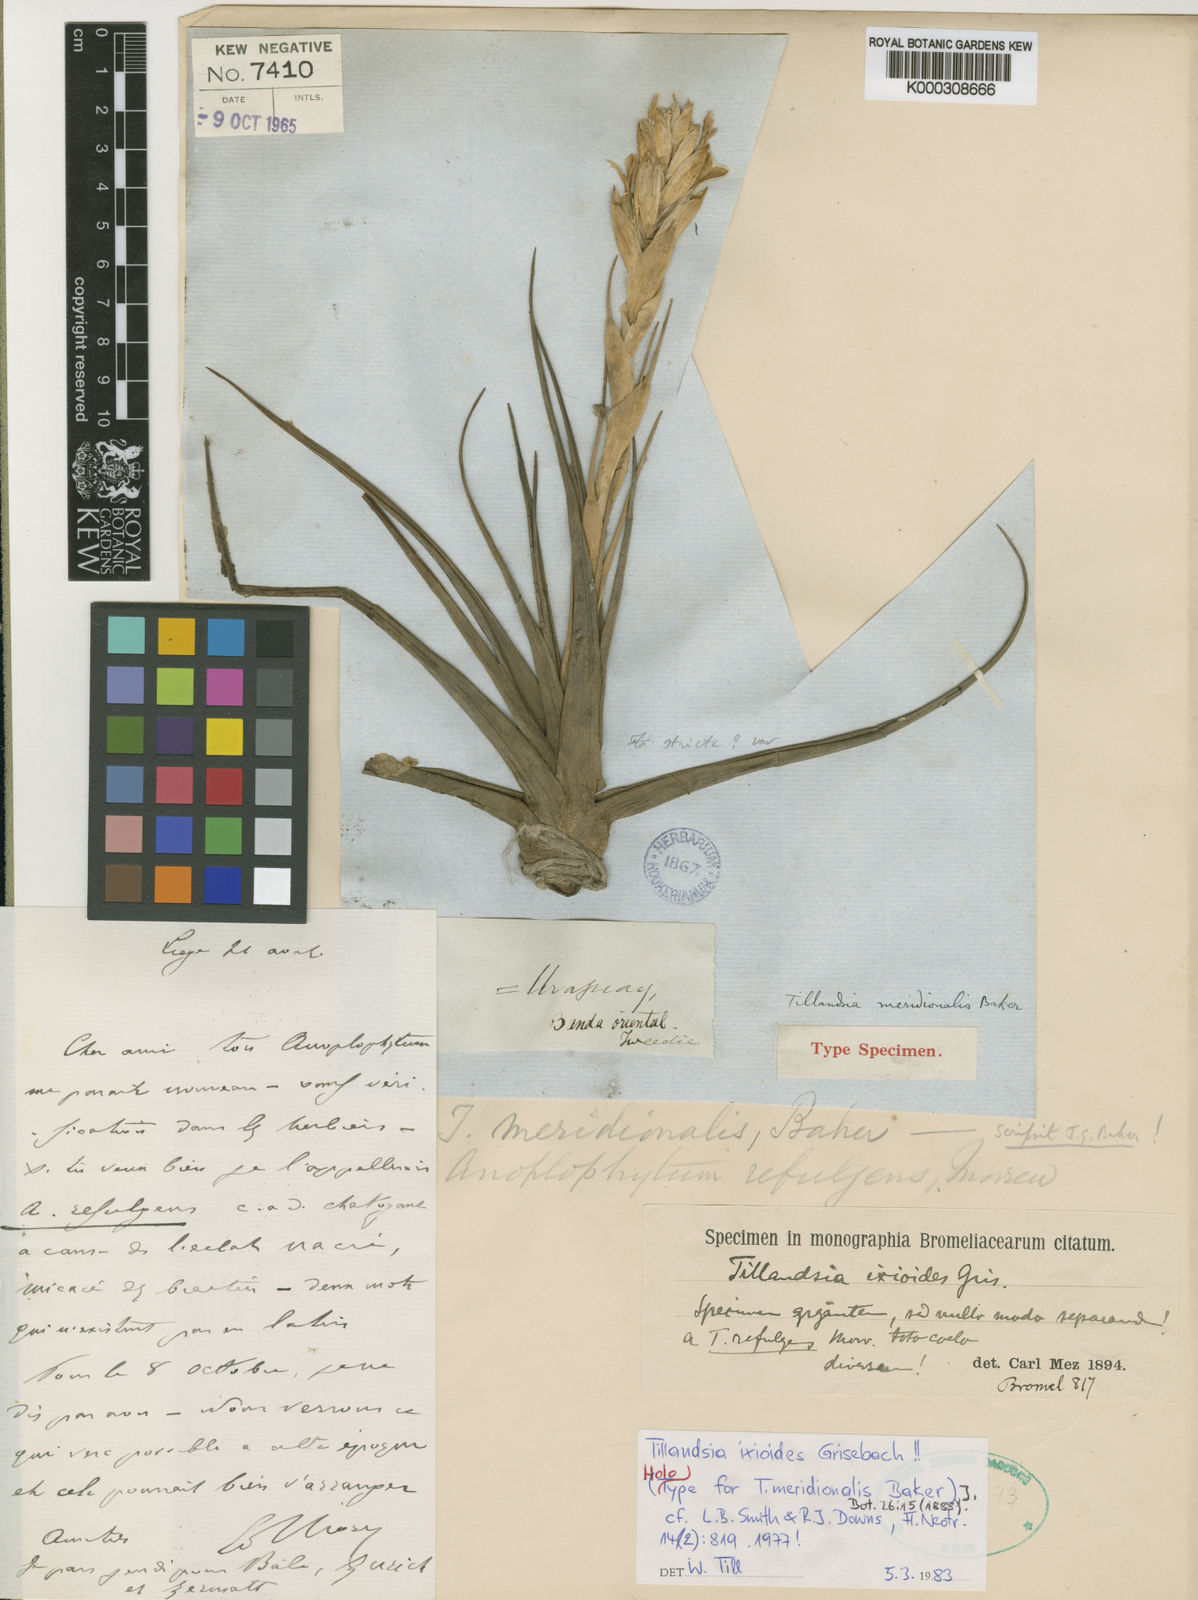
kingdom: Plantae
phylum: Tracheophyta
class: Liliopsida
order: Poales
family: Bromeliaceae
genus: Tillandsia
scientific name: Tillandsia ixioides
